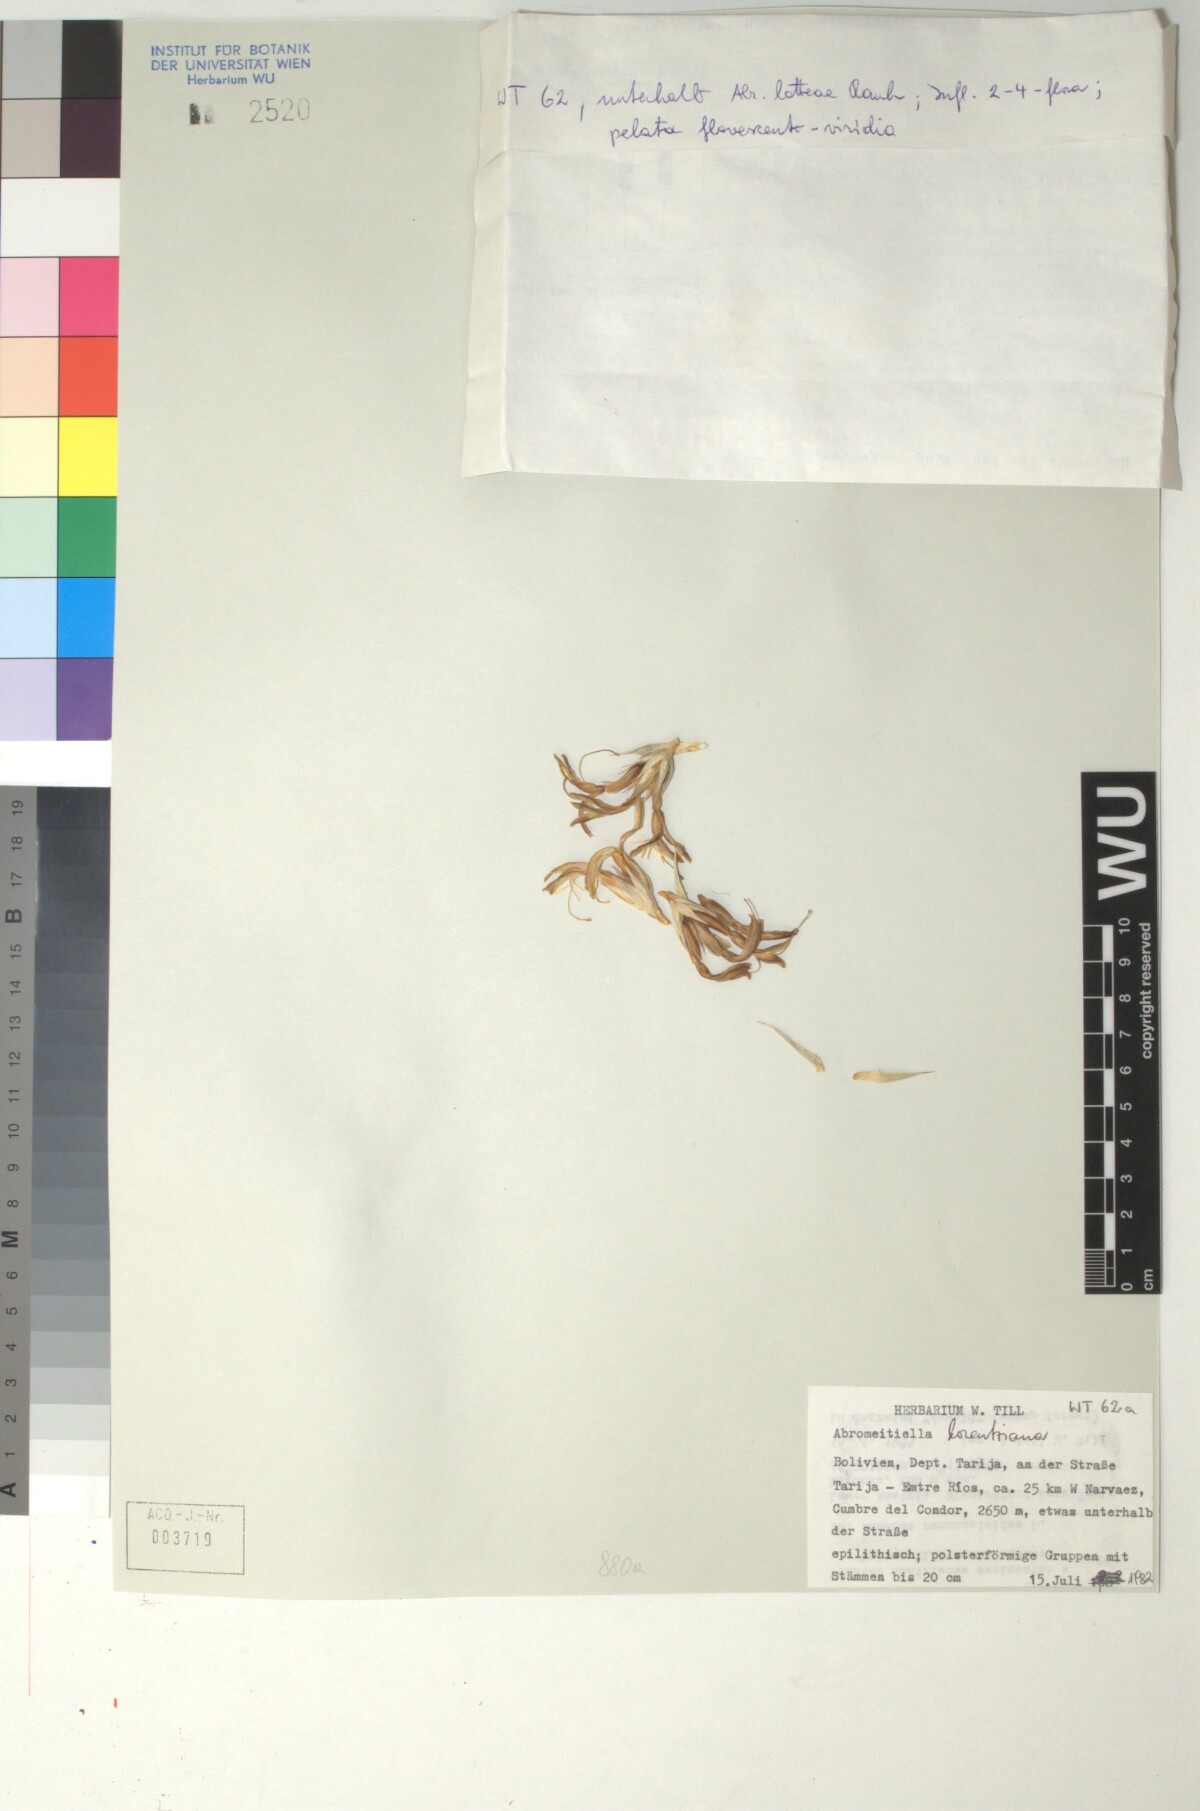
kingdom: Plantae
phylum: Tracheophyta
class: Liliopsida
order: Poales
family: Bromeliaceae
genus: Deuterocohnia
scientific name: Deuterocohnia brevifolia
